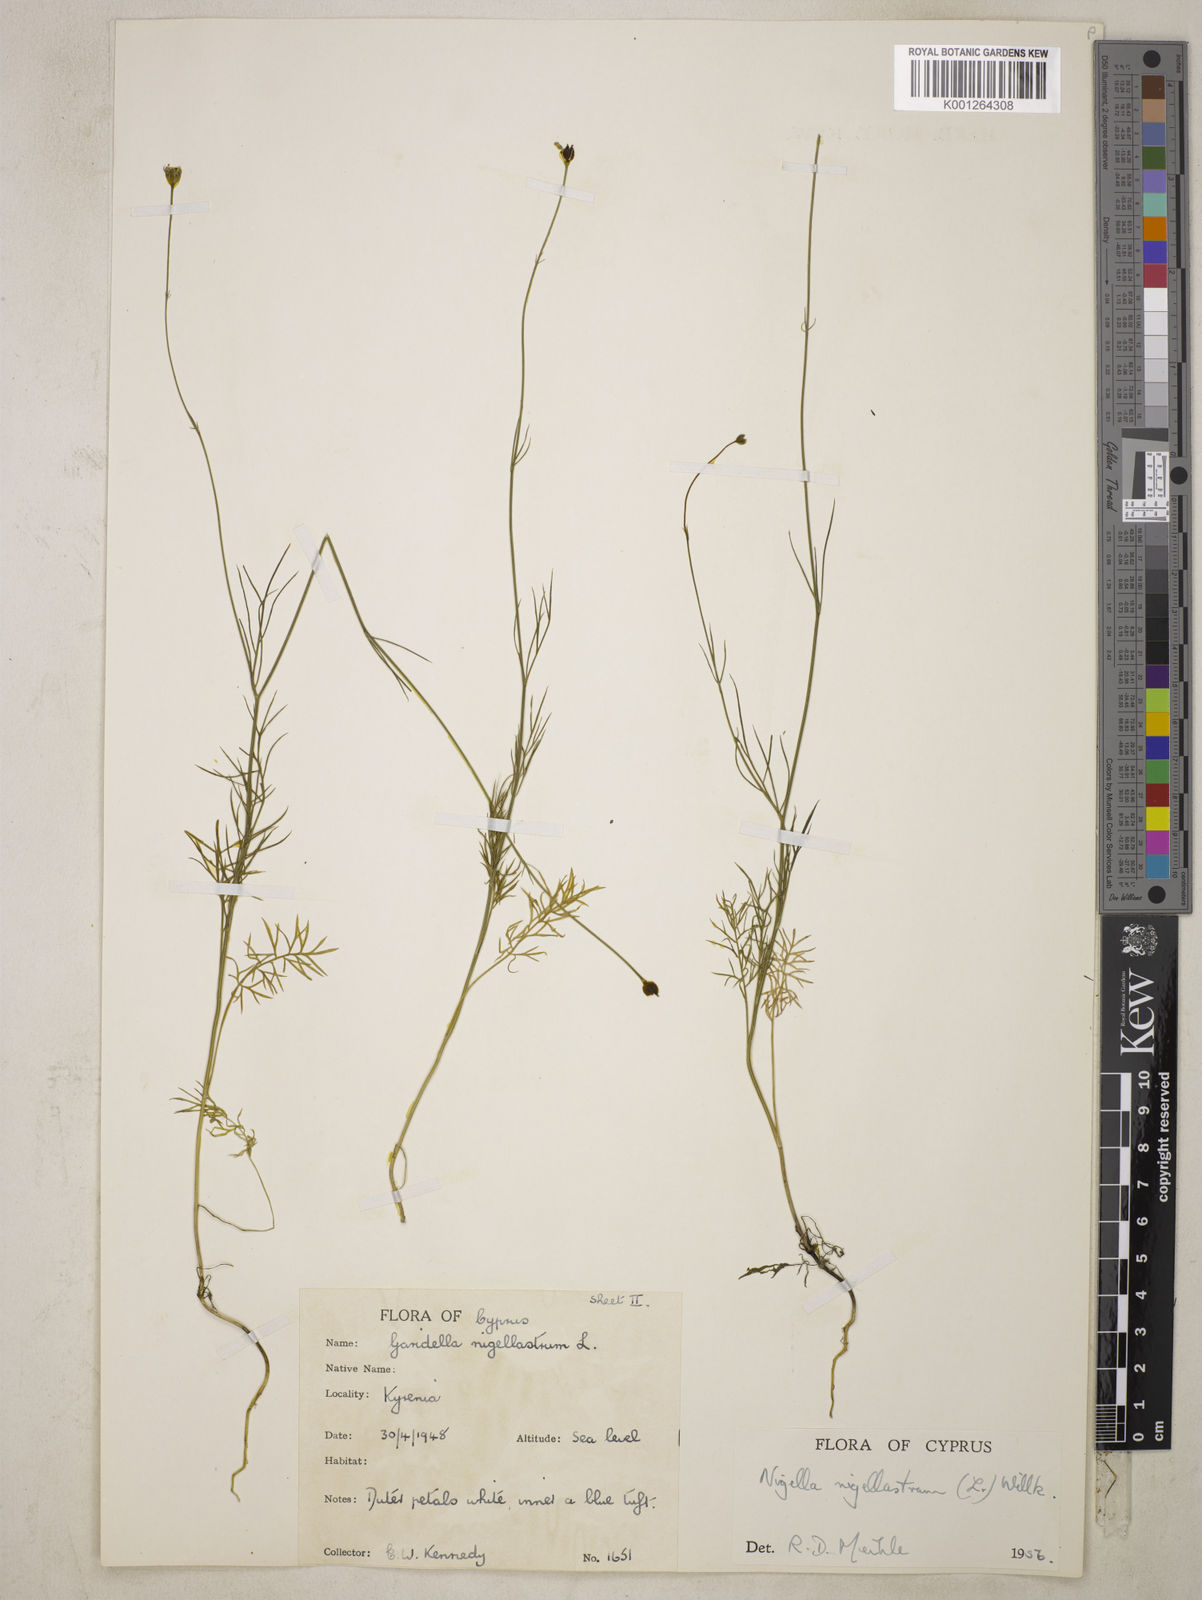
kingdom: Plantae
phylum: Tracheophyta
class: Magnoliopsida
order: Ranunculales
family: Ranunculaceae
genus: Garidella
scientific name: Garidella nigellastrum
